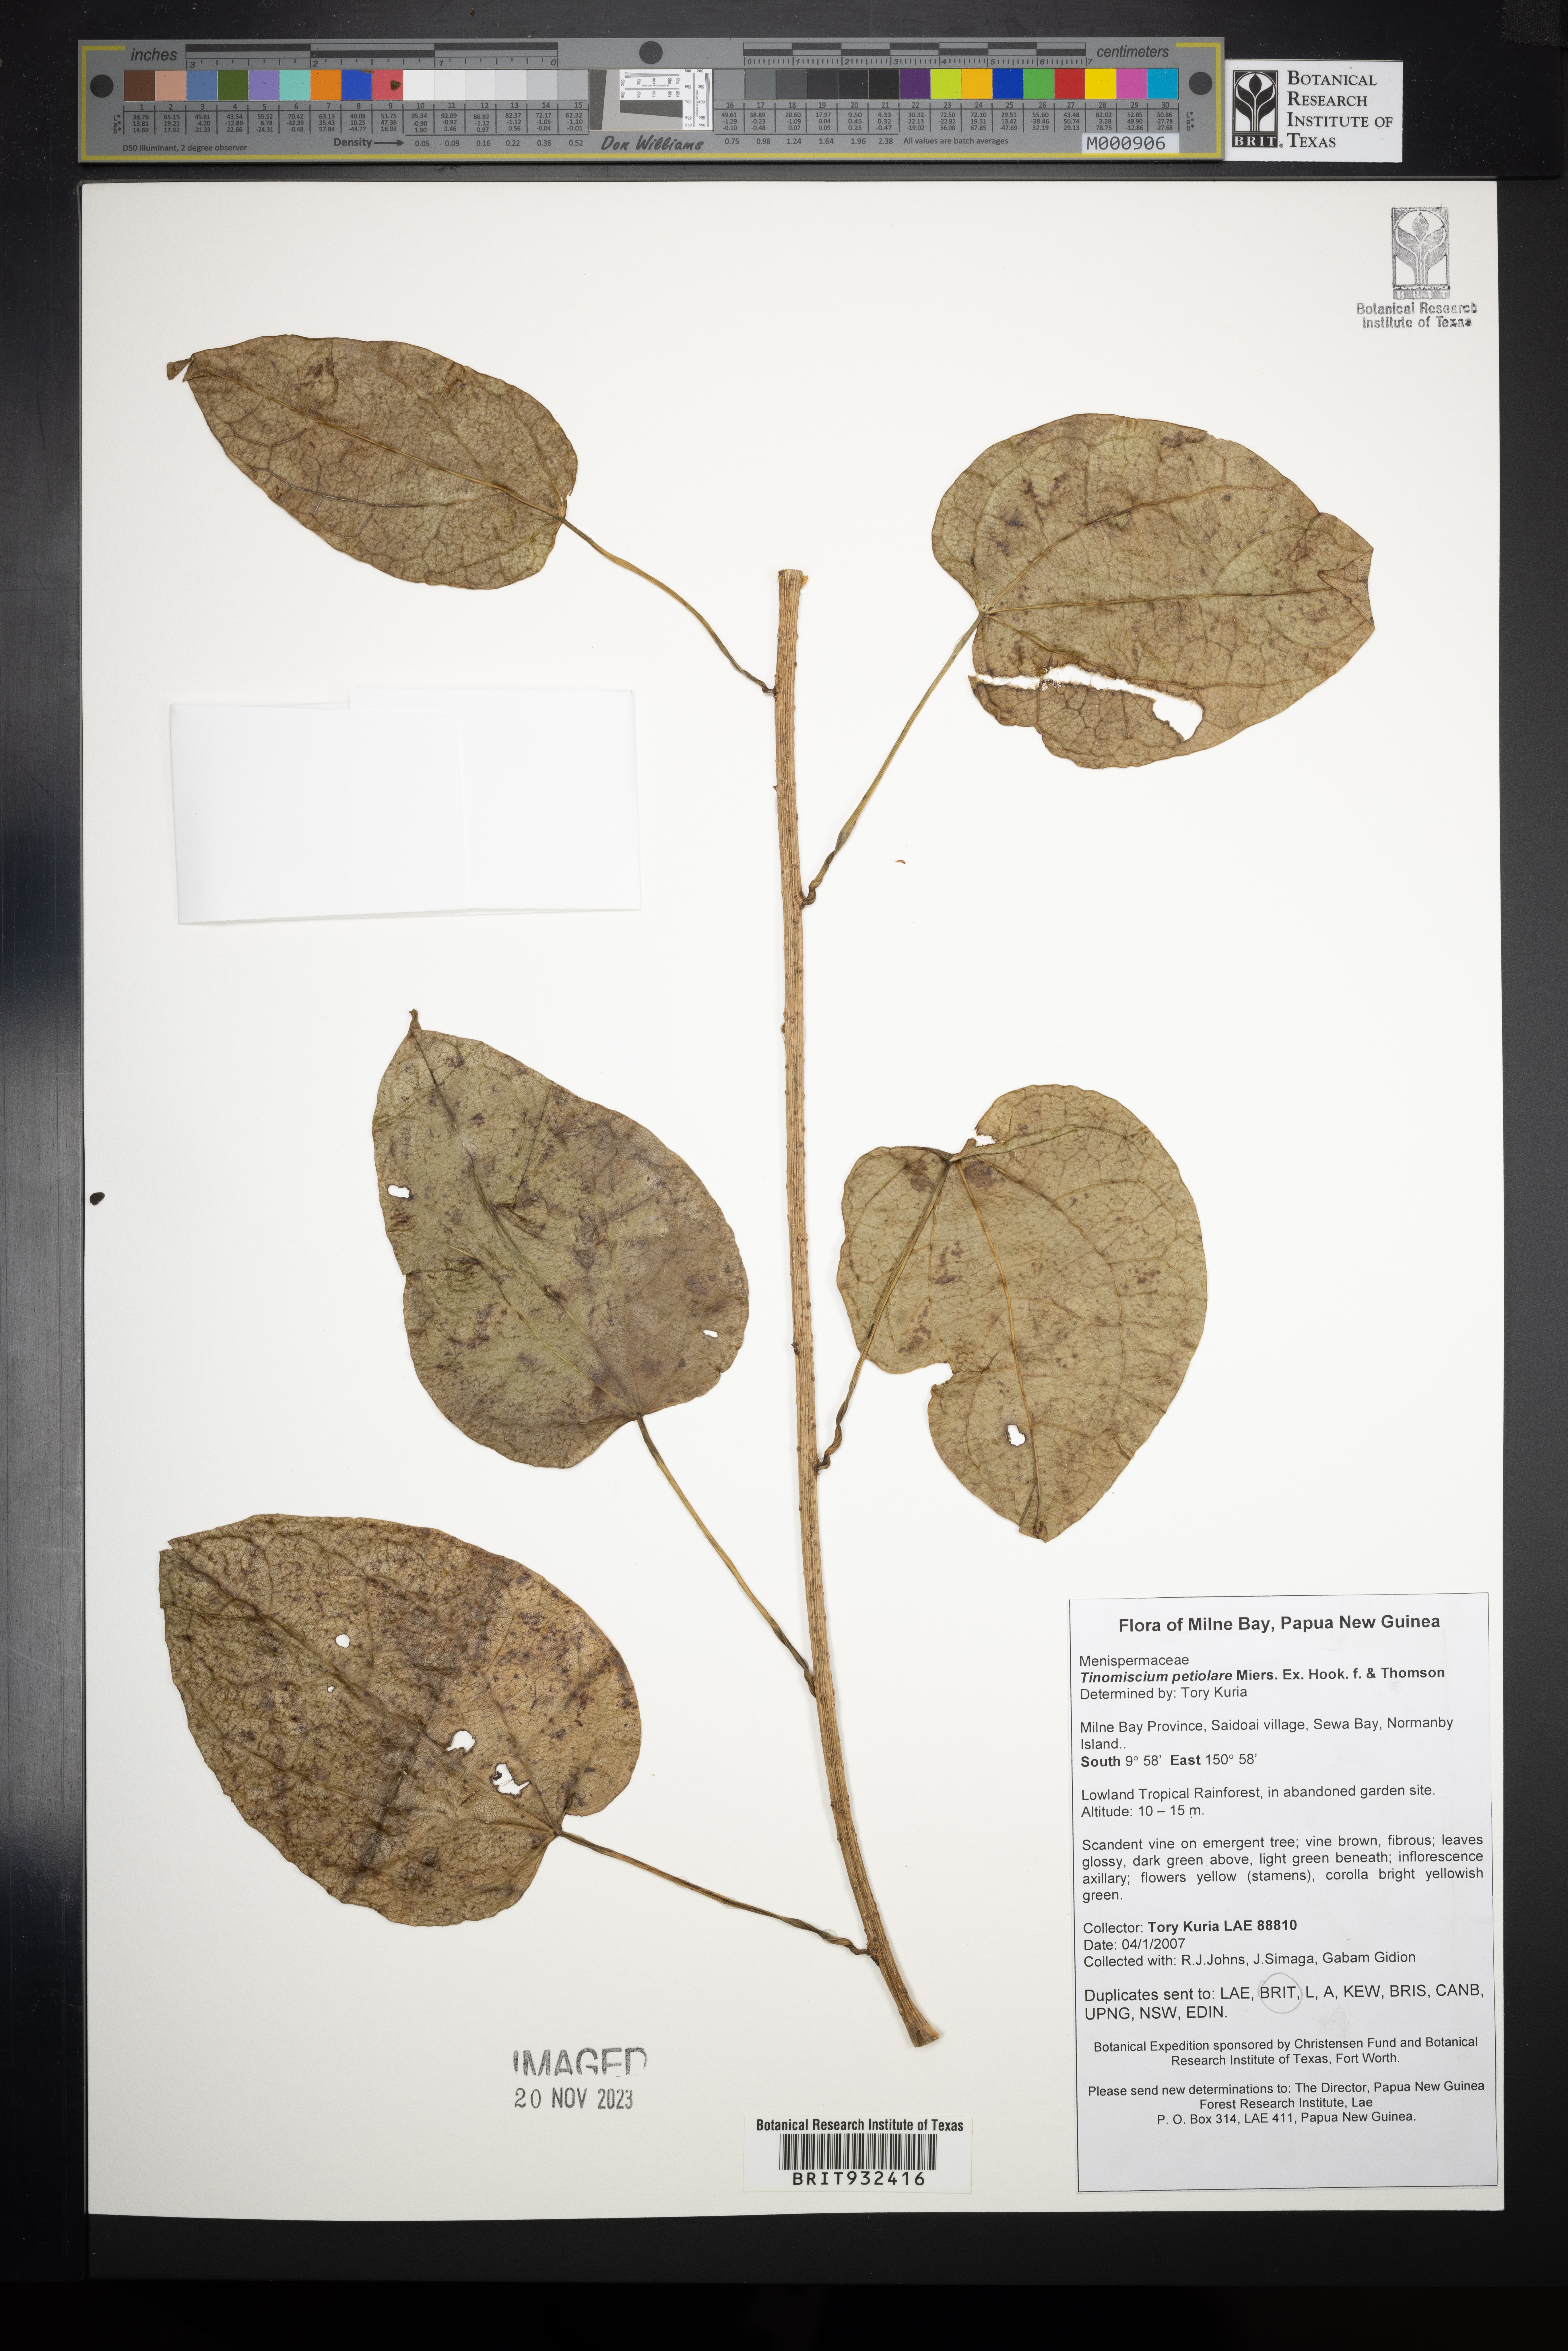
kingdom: Plantae
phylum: Tracheophyta
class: Magnoliopsida
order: Ranunculales
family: Menispermaceae
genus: Tinomiscium
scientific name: Tinomiscium
